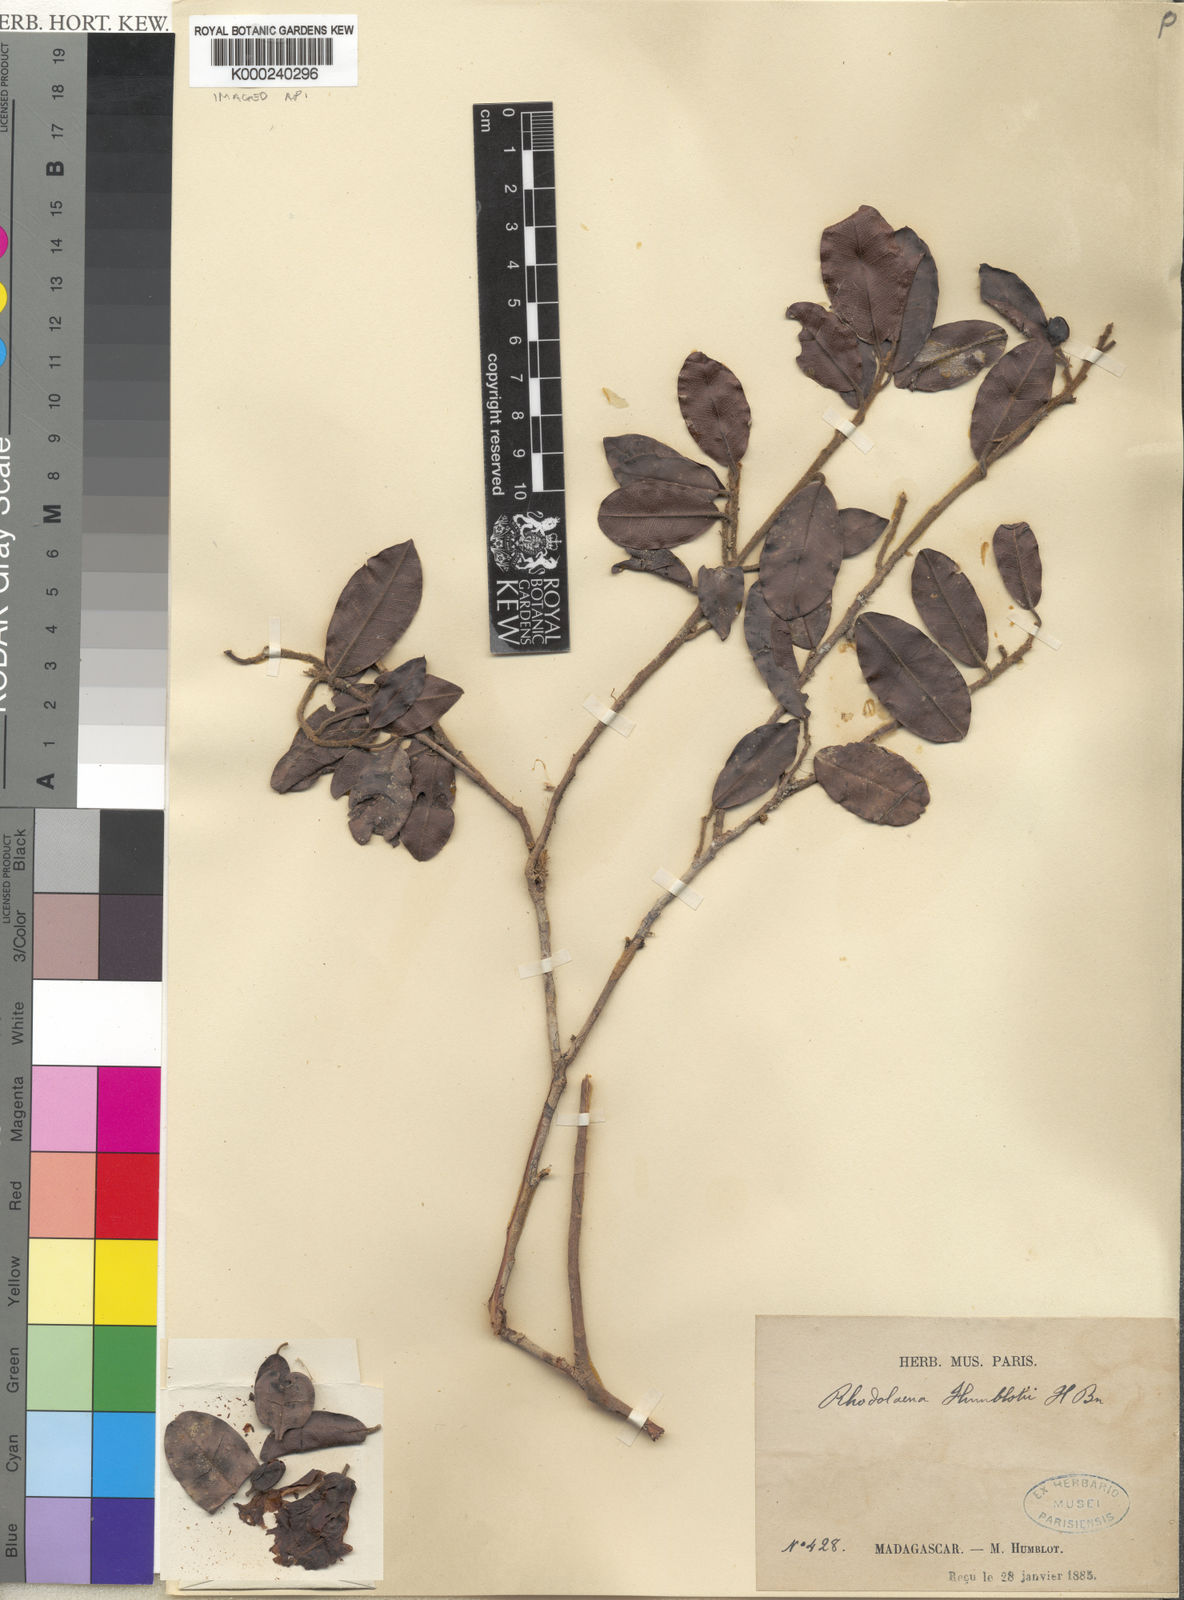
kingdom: Plantae
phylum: Tracheophyta
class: Magnoliopsida
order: Malvales
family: Sarcolaenaceae
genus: Rhodolaena
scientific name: Rhodolaena humblotii
